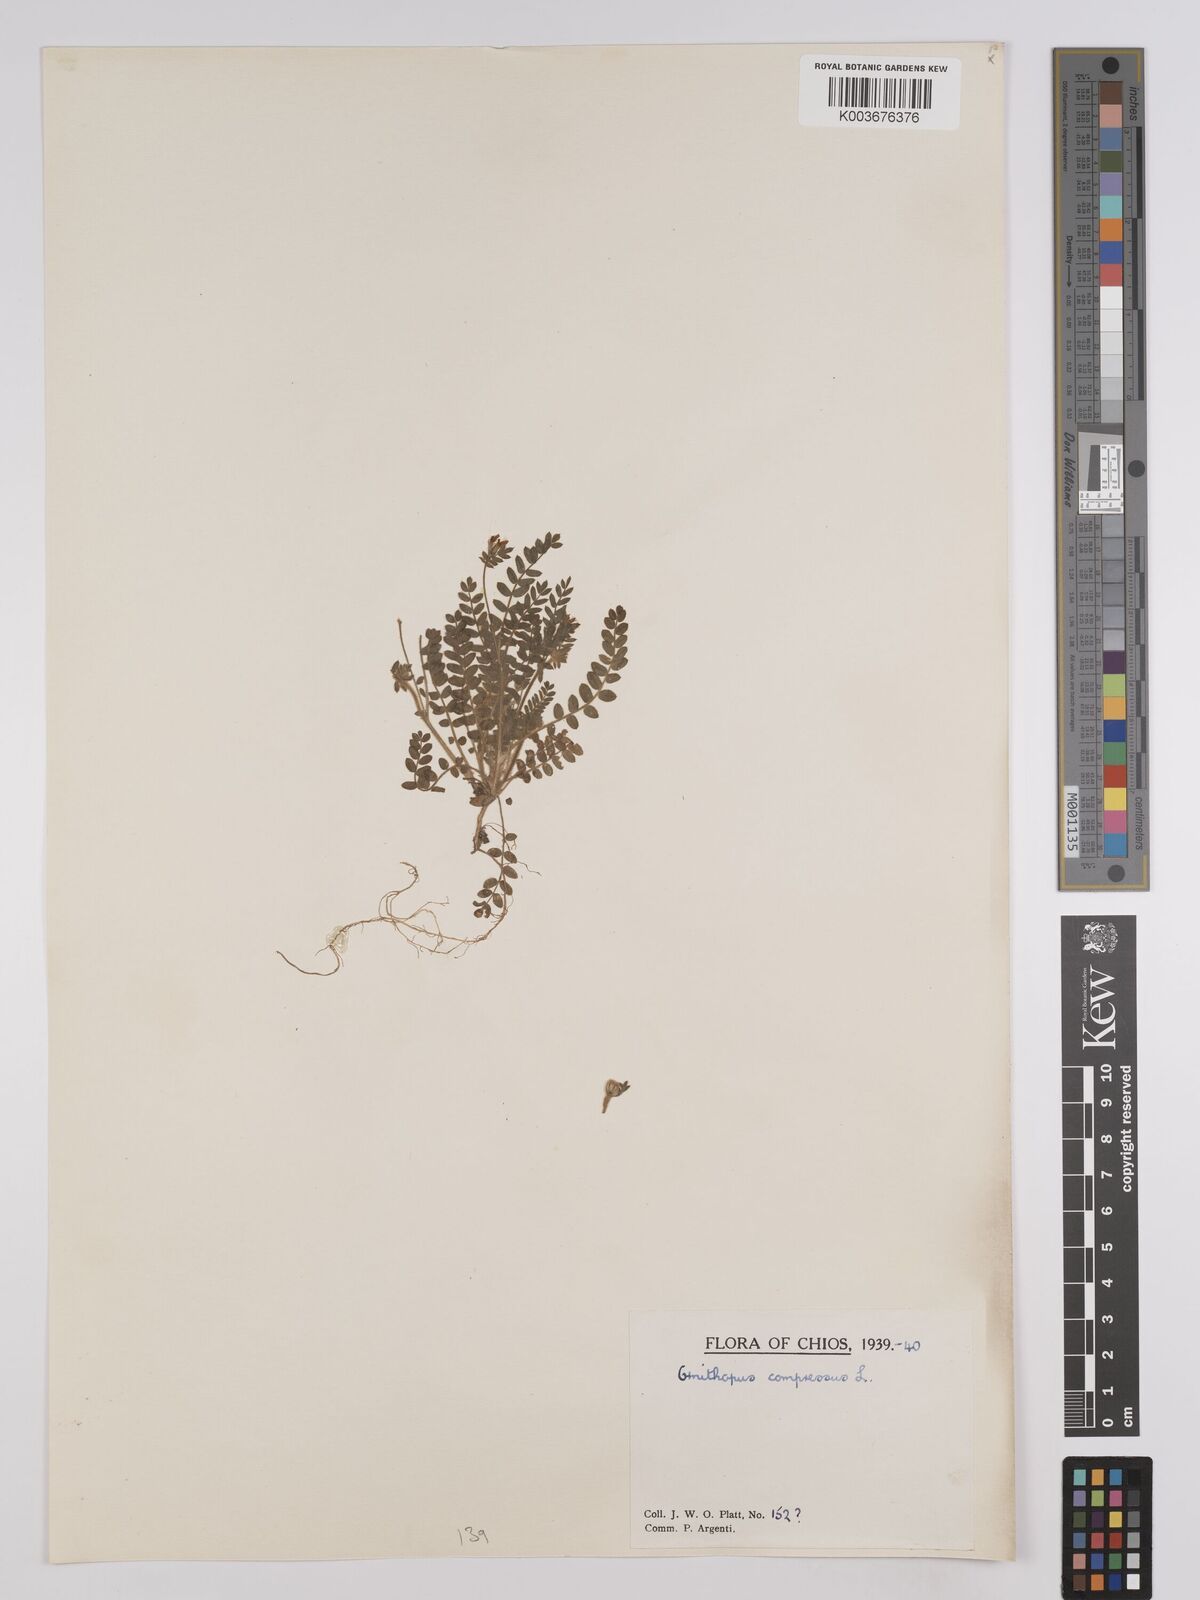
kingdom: Plantae
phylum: Tracheophyta
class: Magnoliopsida
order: Fabales
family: Fabaceae
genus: Ornithopus
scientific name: Ornithopus compressus
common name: Yellow serradella
